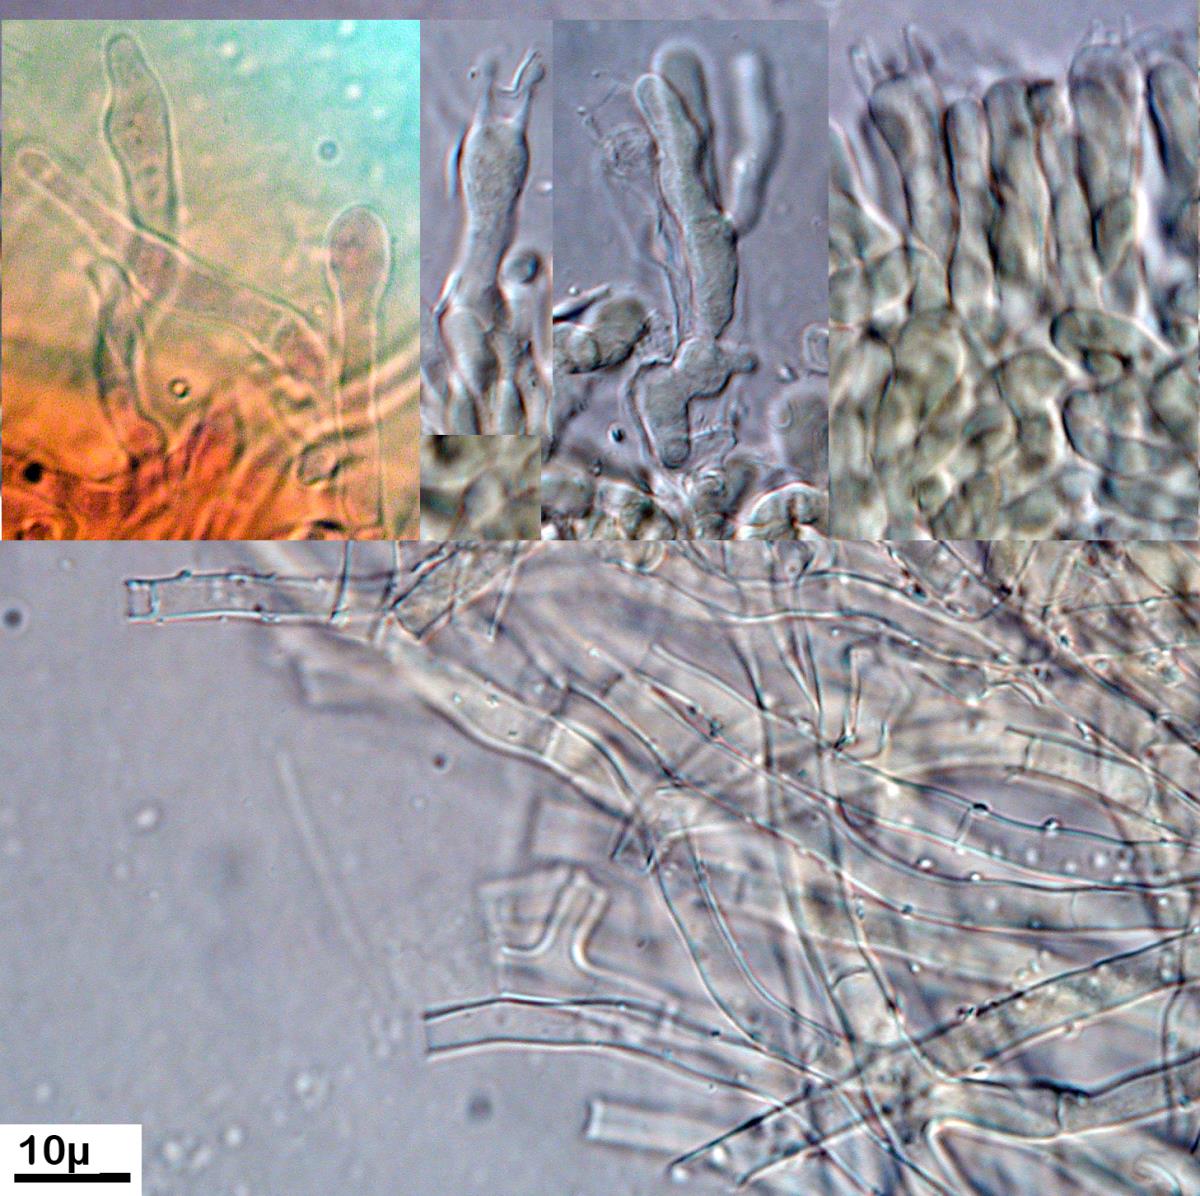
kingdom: Fungi
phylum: Basidiomycota
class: Agaricomycetes
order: Polyporales
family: Irpicaceae
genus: Byssomerulius
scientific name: Byssomerulius corium
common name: Netted crust
